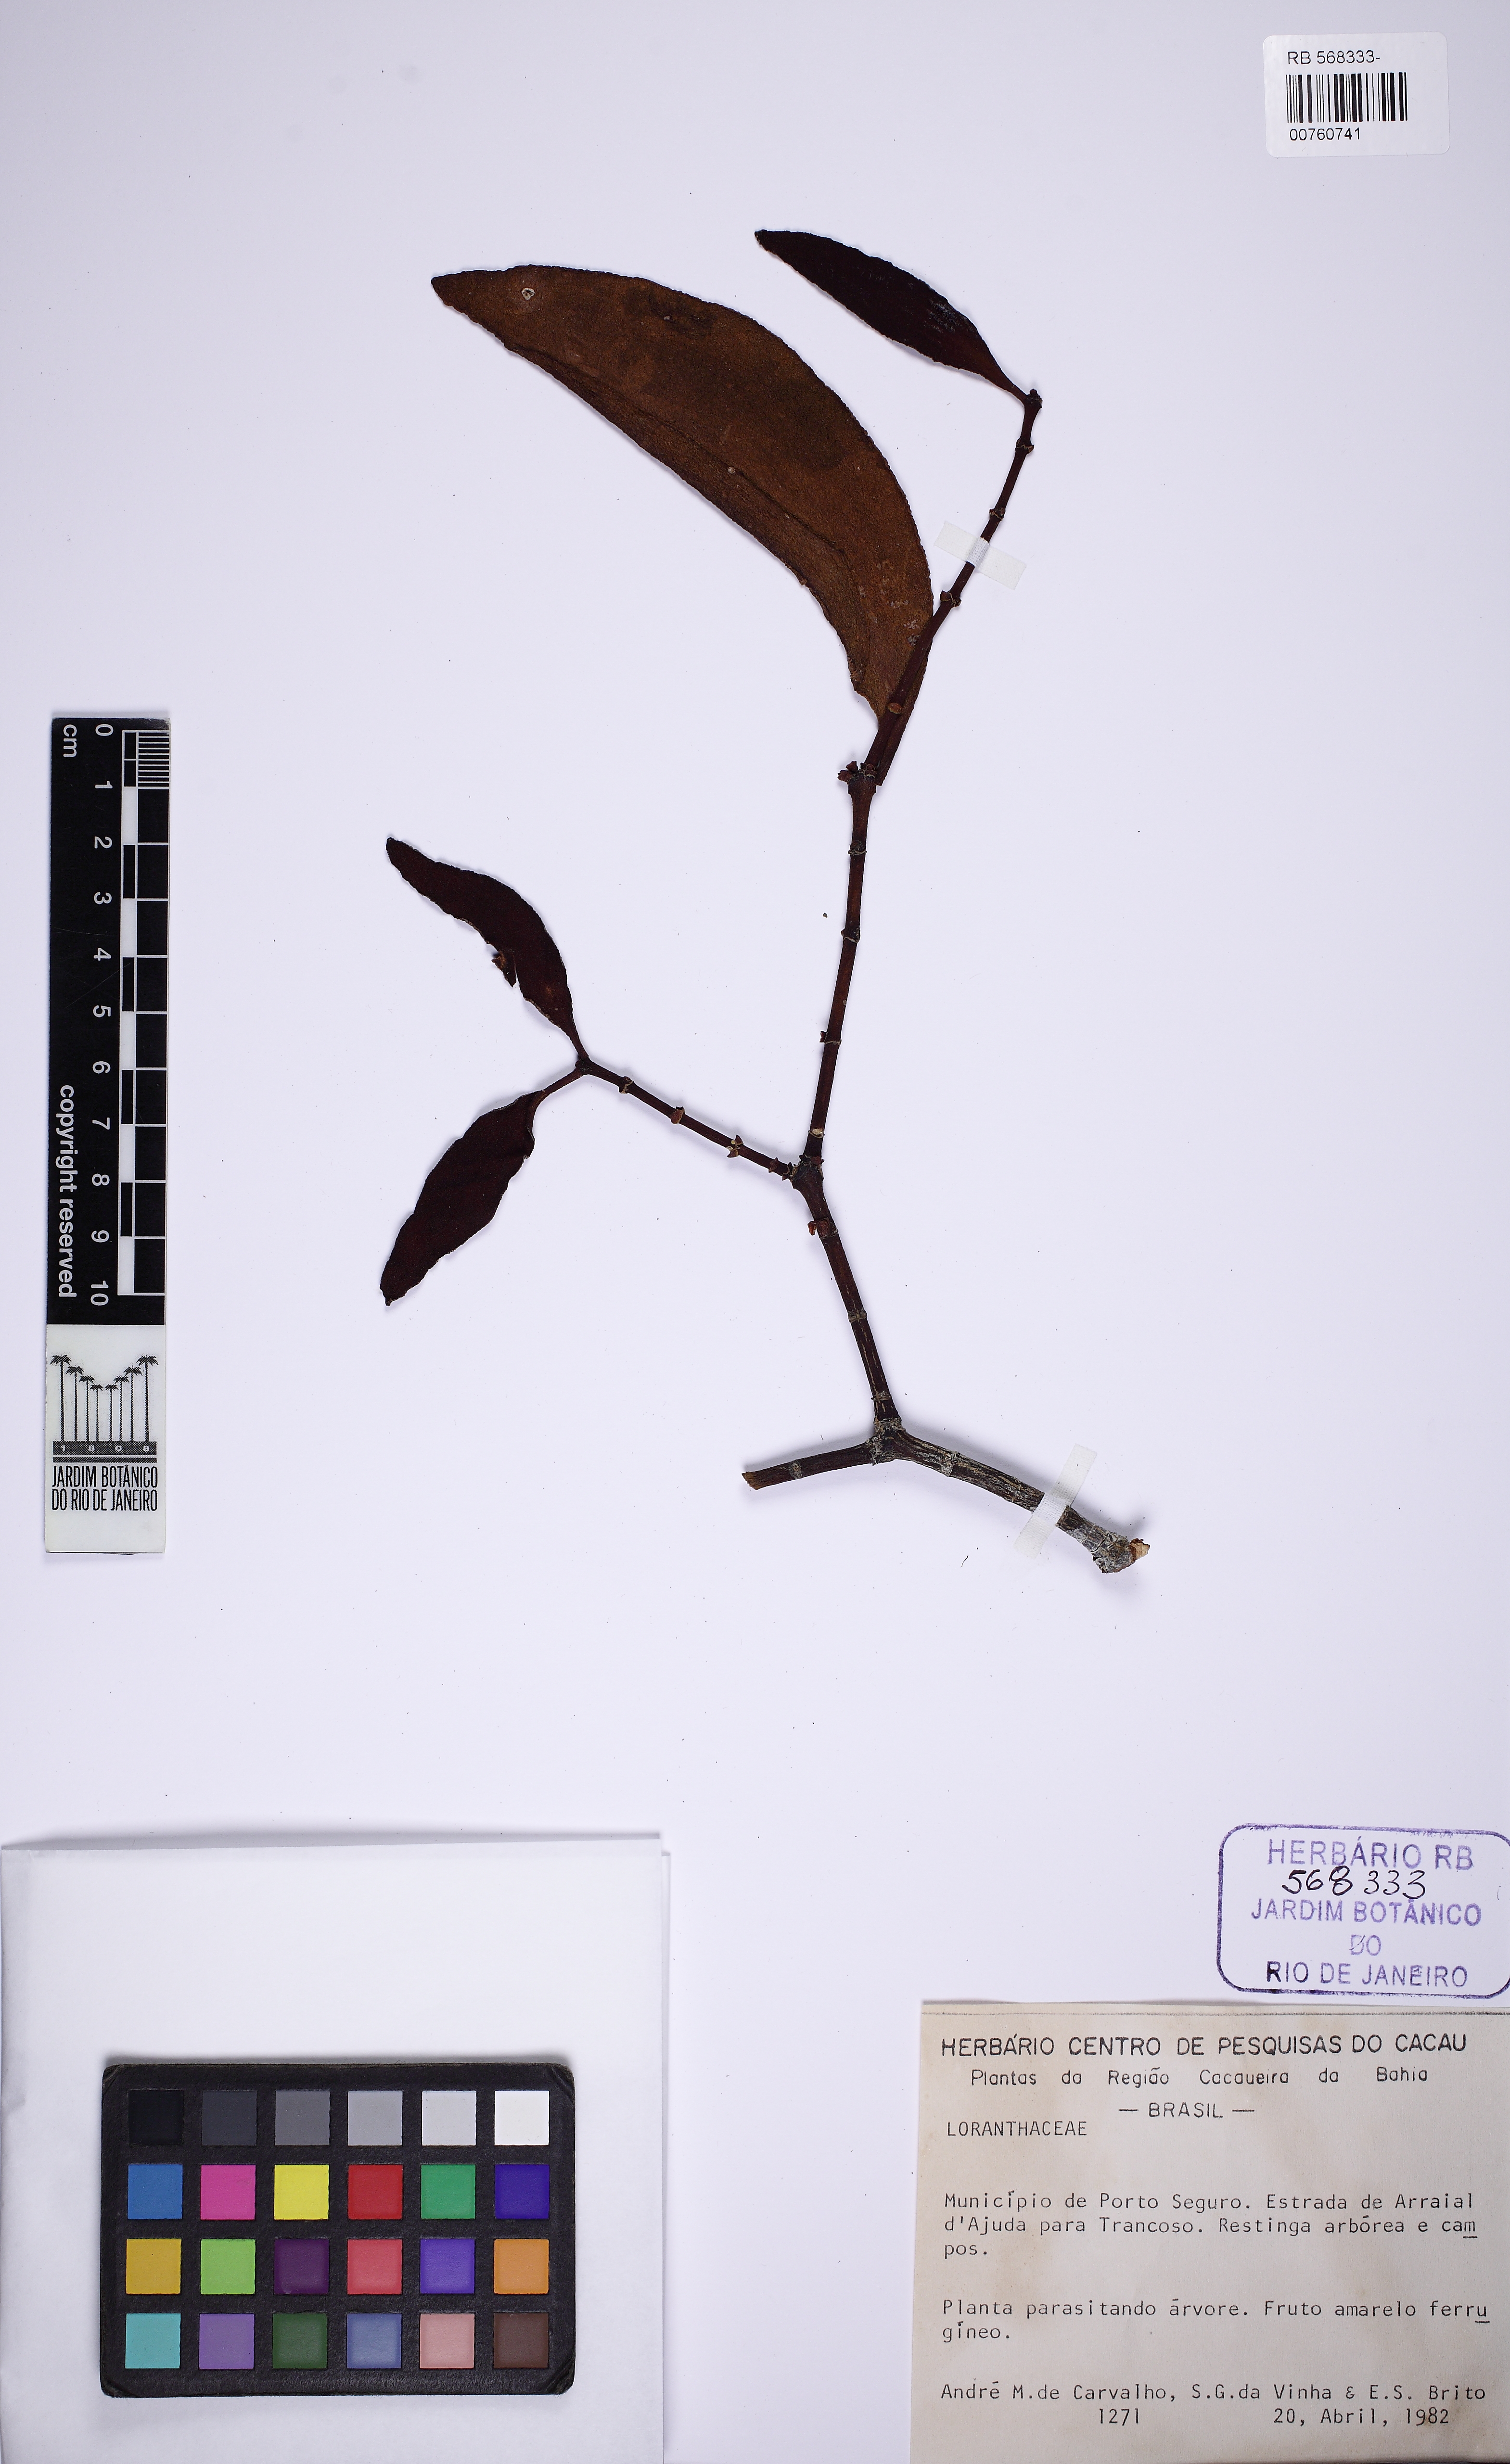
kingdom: Plantae
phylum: Tracheophyta
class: Magnoliopsida
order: Santalales
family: Viscaceae
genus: Phoradendron
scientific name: Phoradendron crassifolium
